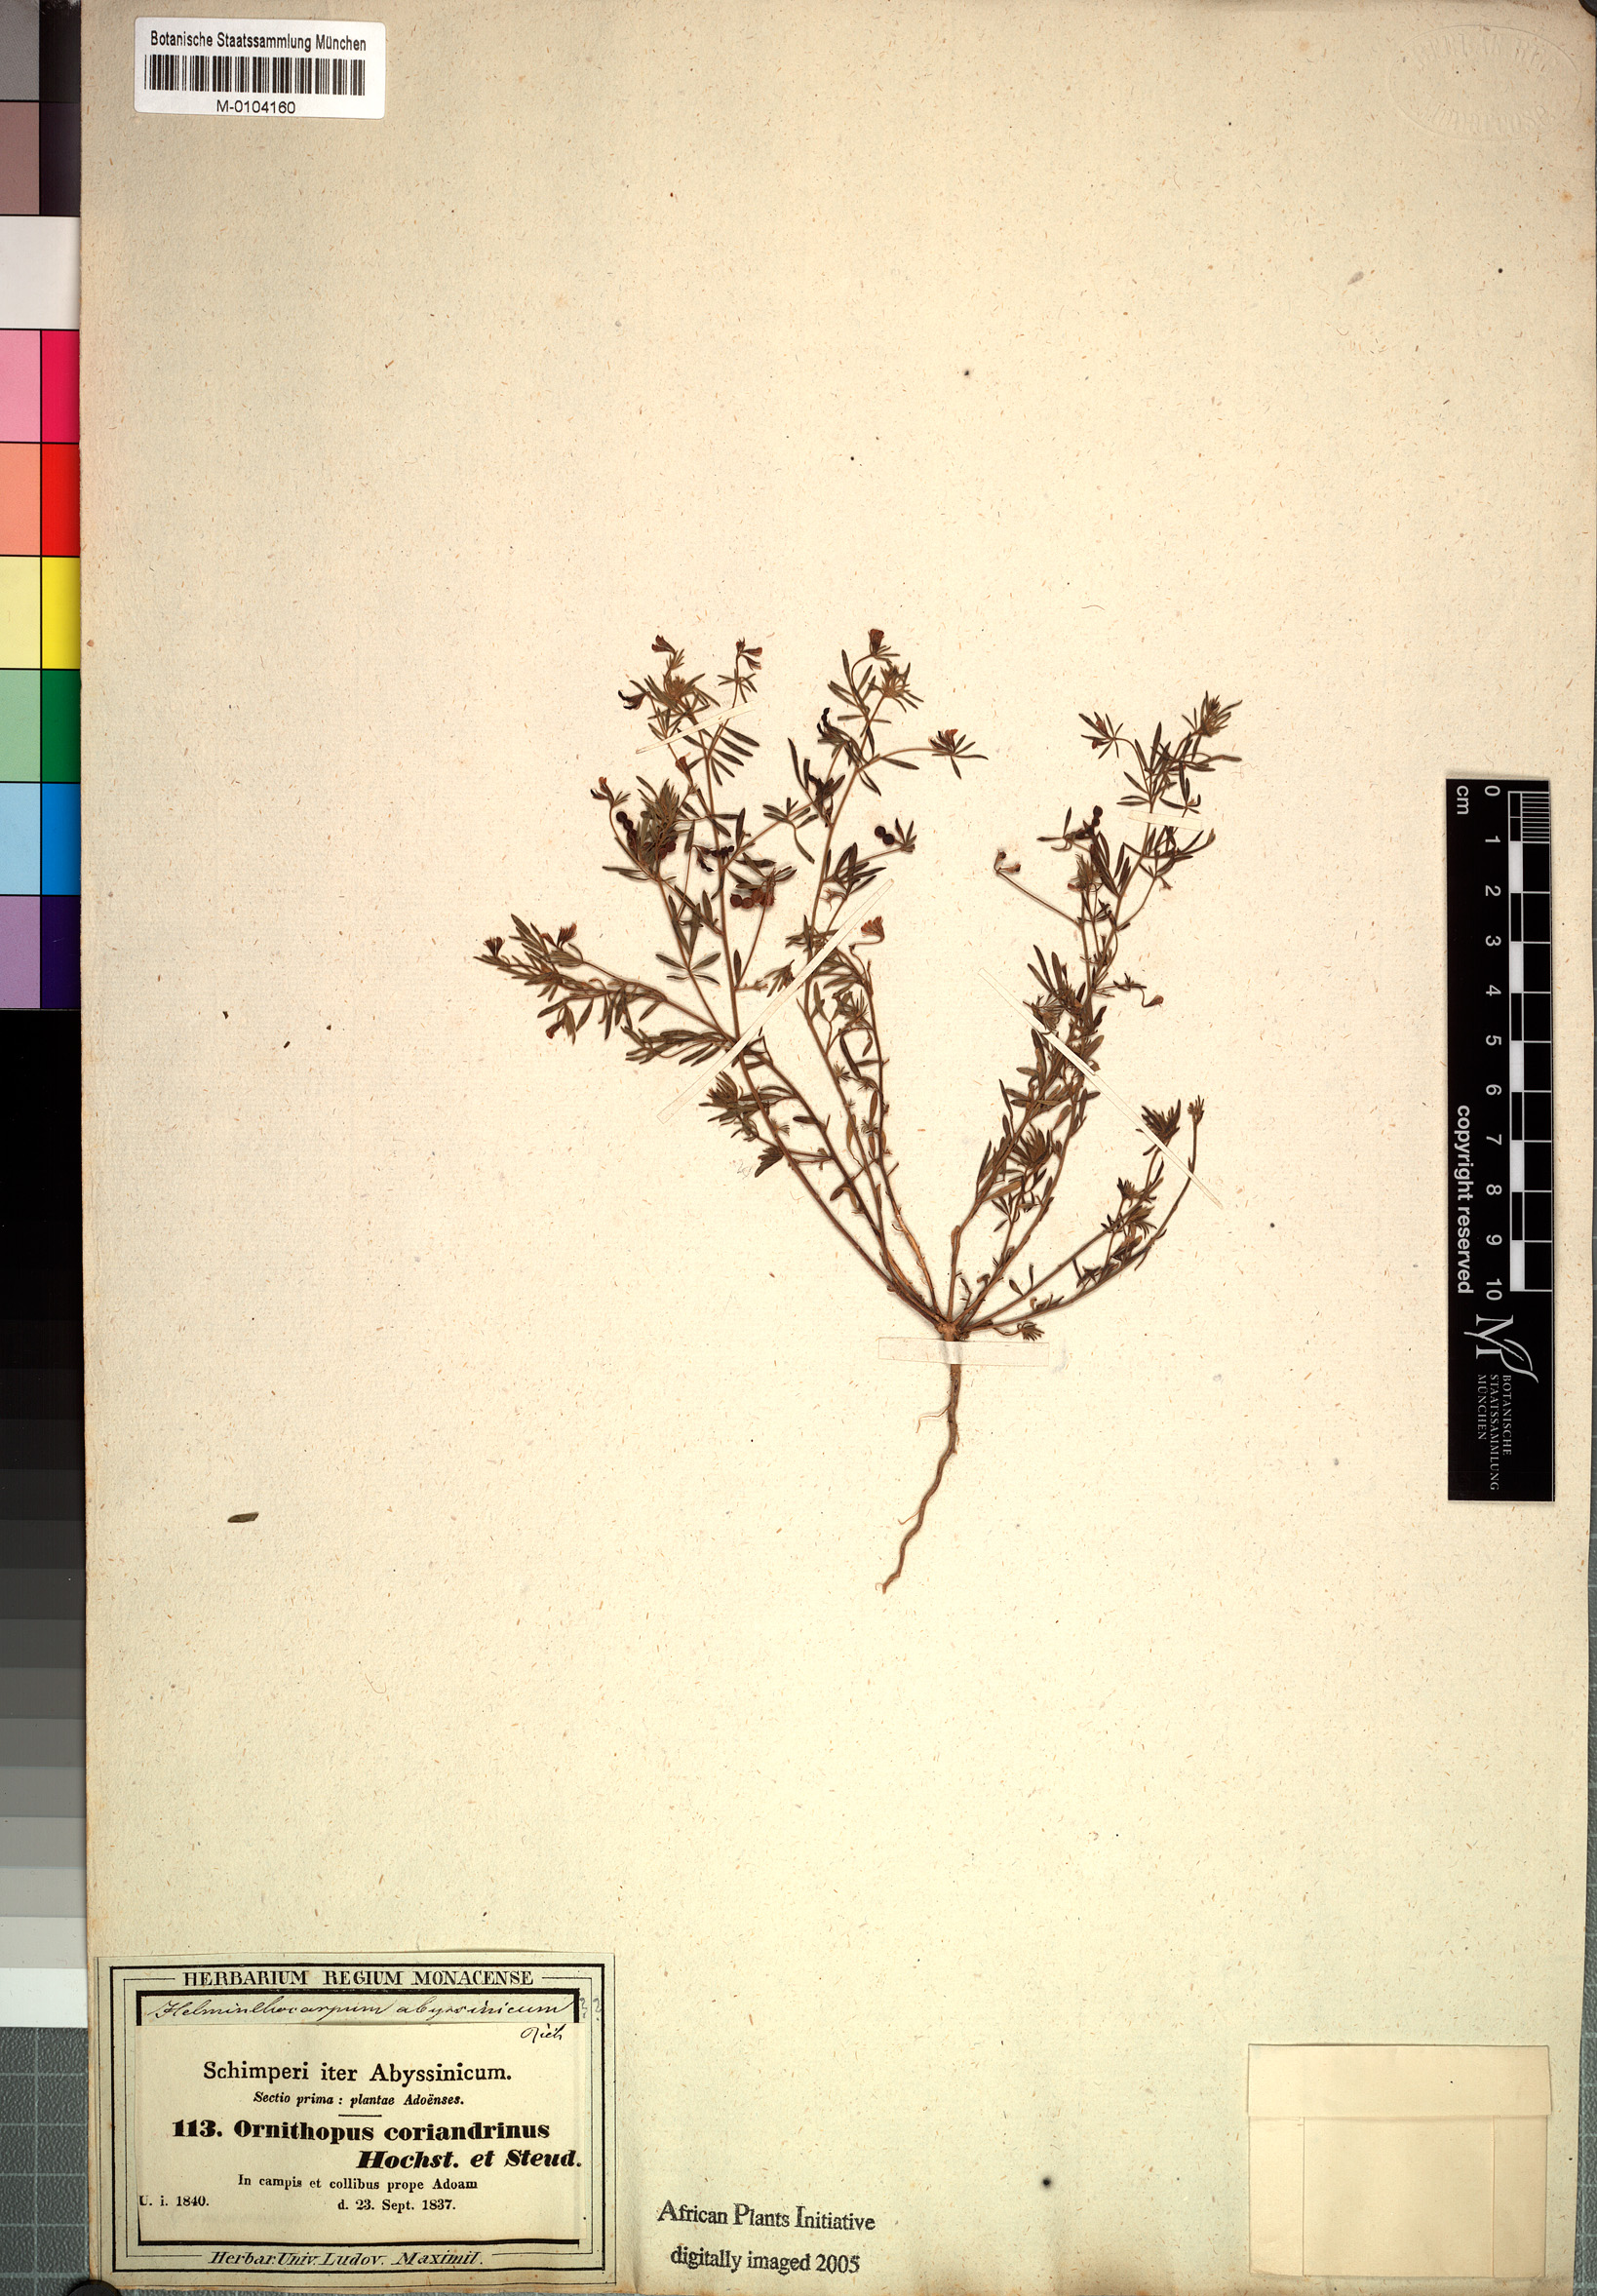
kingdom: Plantae
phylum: Tracheophyta
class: Magnoliopsida
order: Fabales
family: Fabaceae
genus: Antopetitia
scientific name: Antopetitia abyssinica
